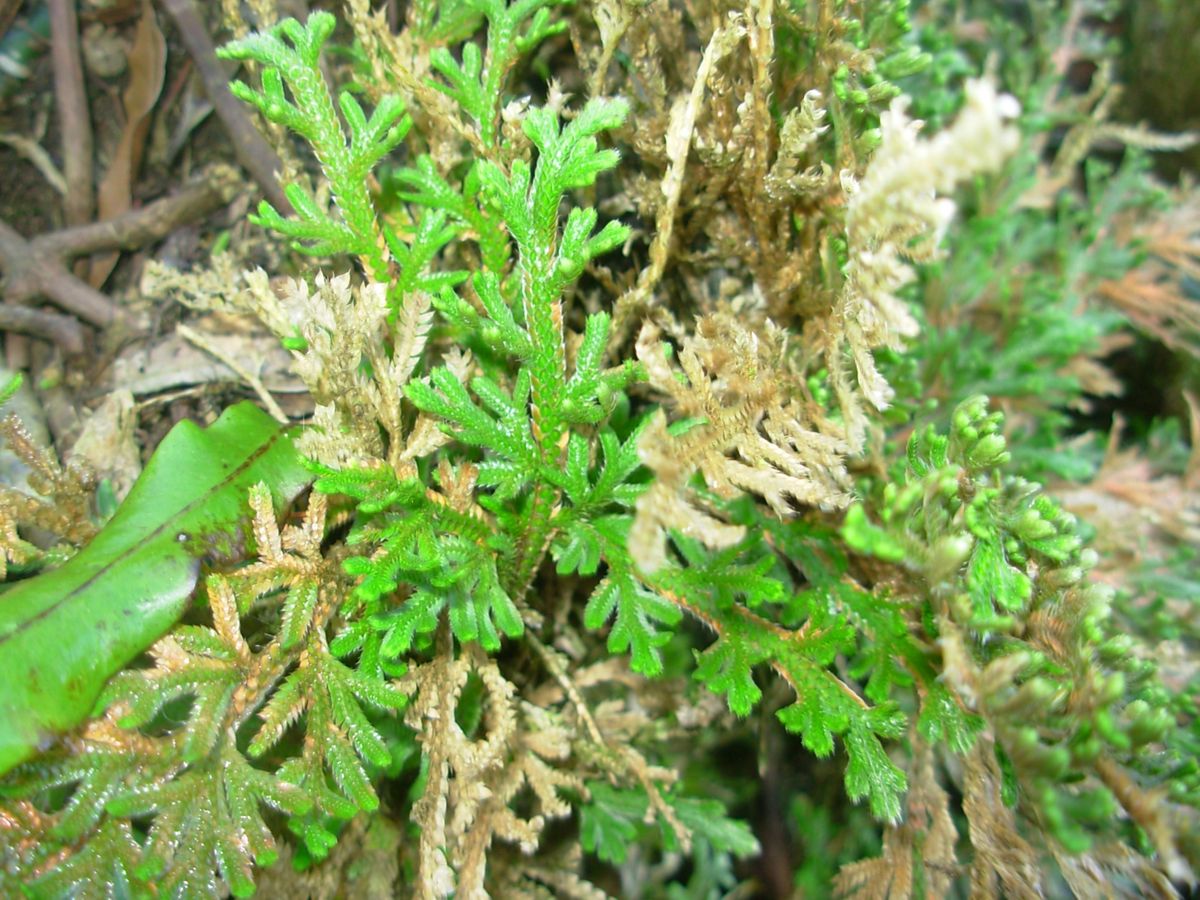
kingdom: Plantae
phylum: Tracheophyta
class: Lycopodiopsida
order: Selaginellales
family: Selaginellaceae
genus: Selaginella
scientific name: Selaginella pallescens
